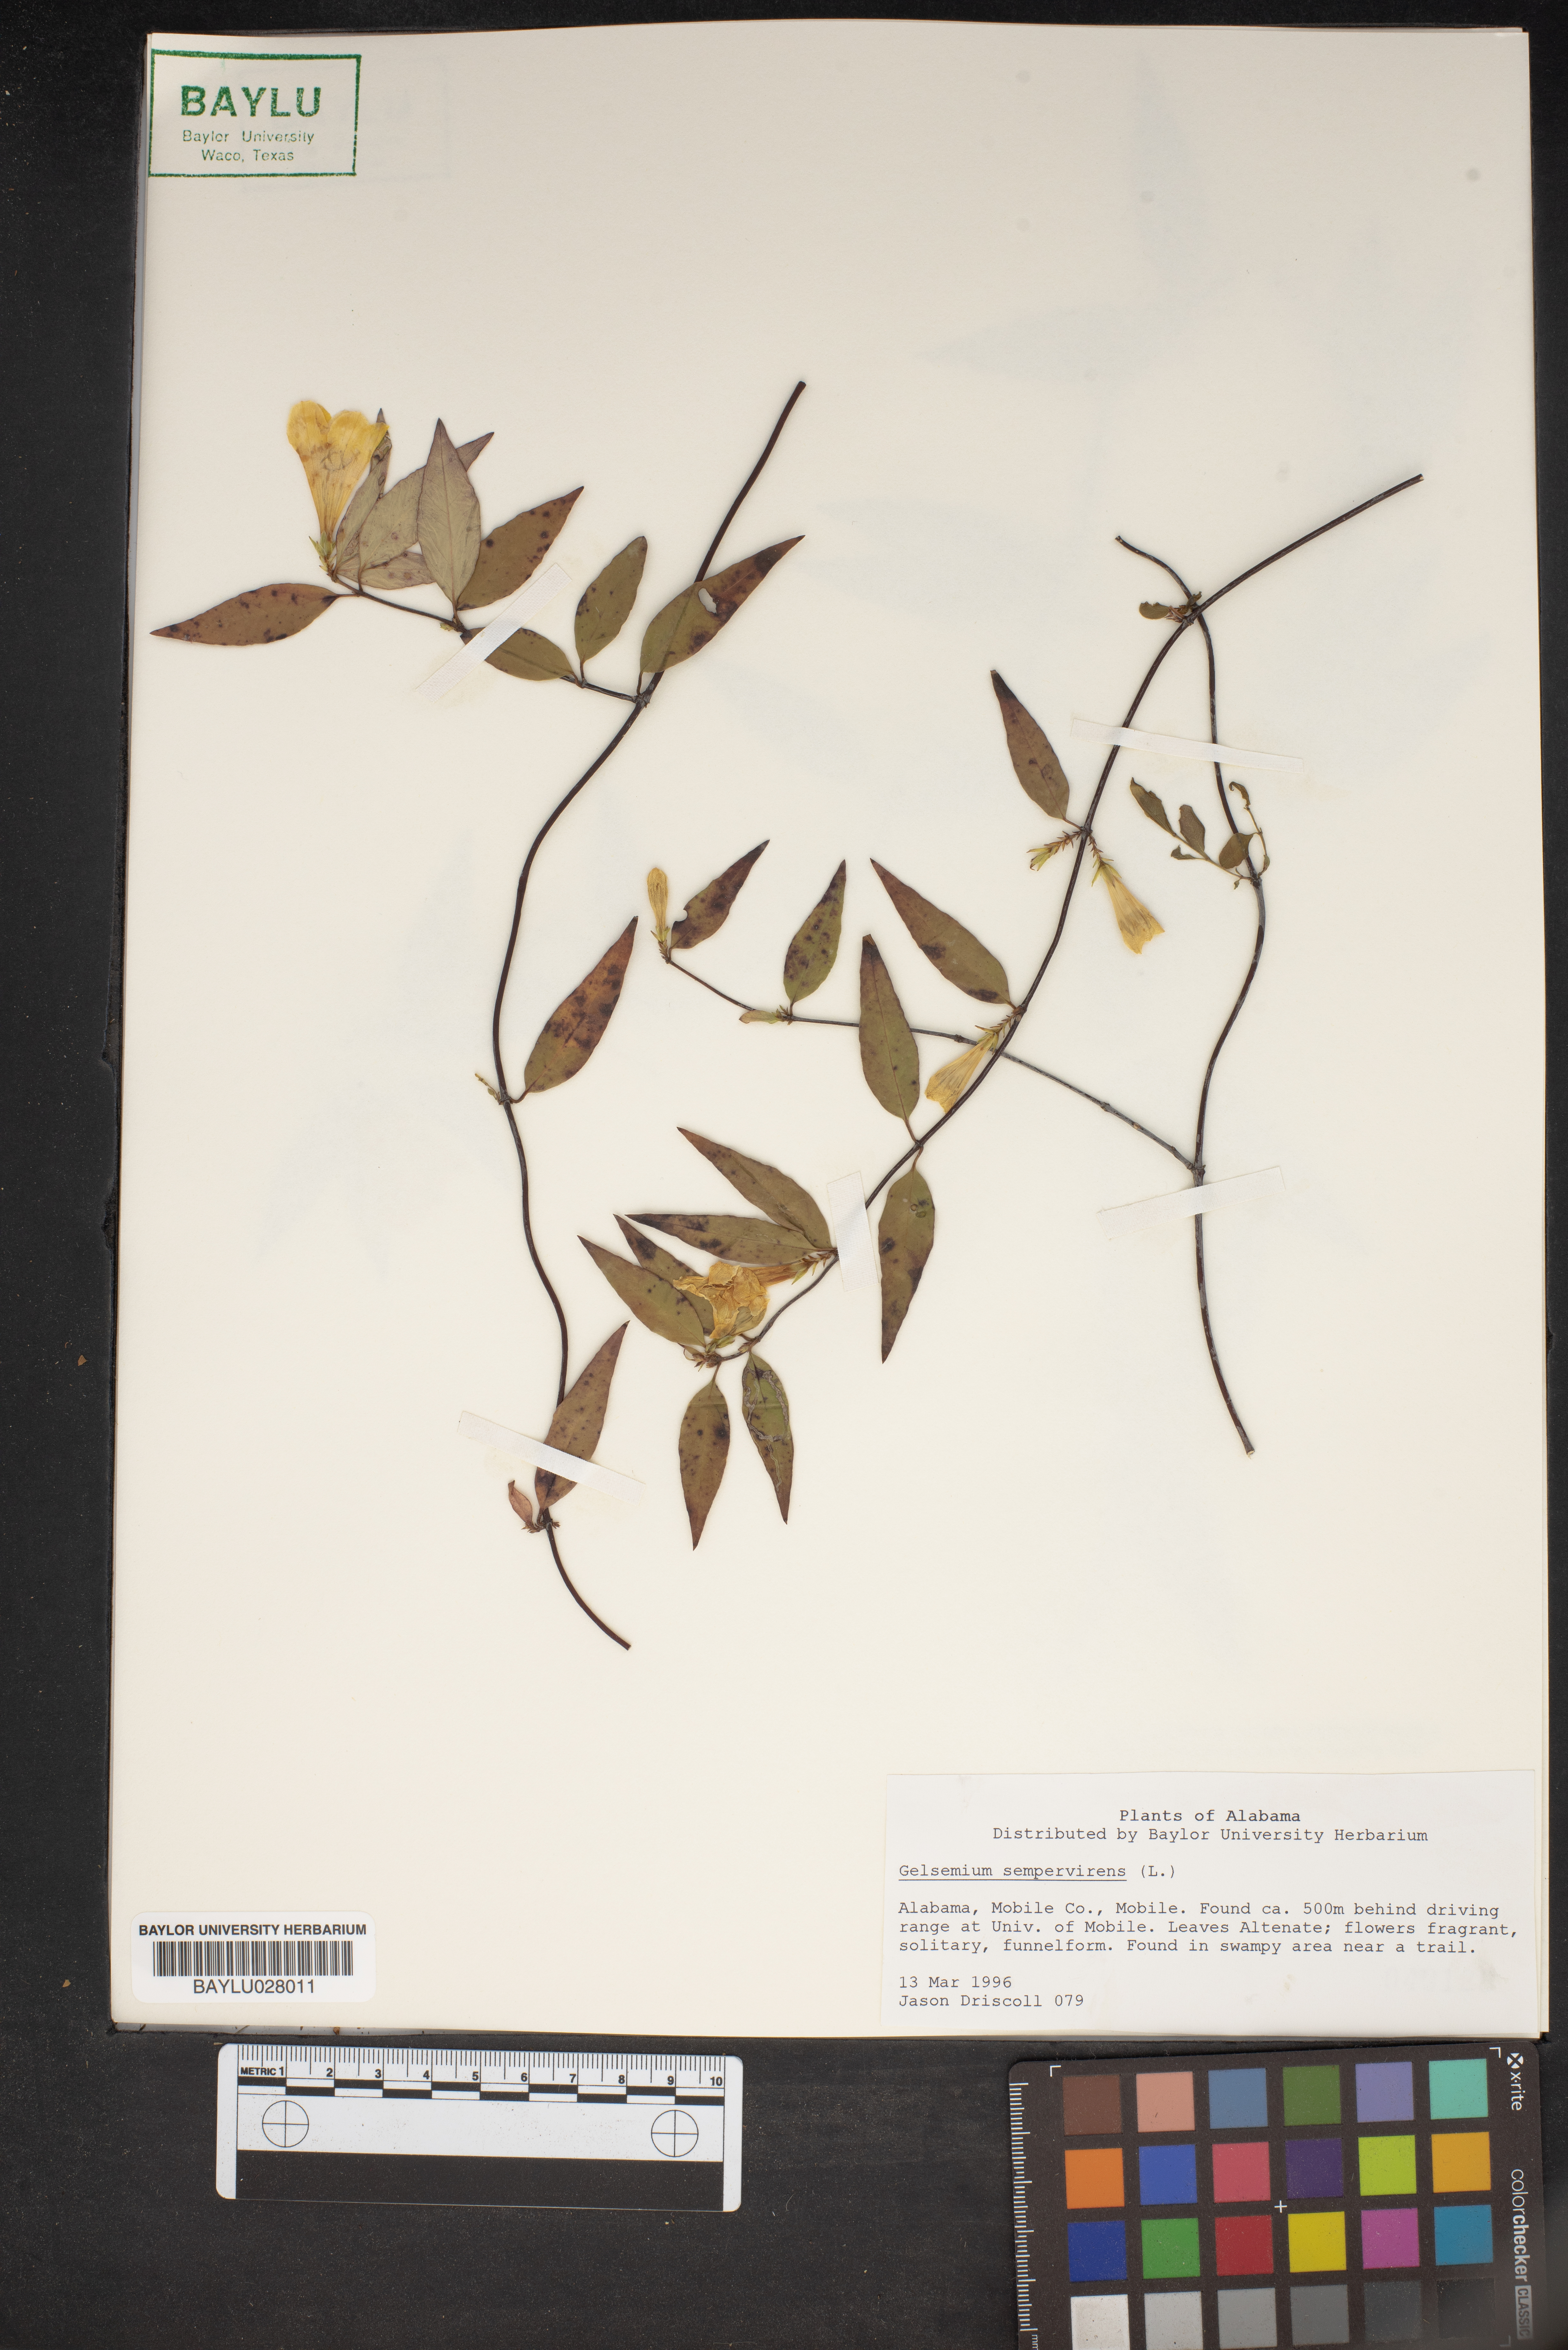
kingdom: Plantae
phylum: Tracheophyta
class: Magnoliopsida
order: Gentianales
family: Gelsemiaceae
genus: Gelsemium
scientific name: Gelsemium sempervirens
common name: Carolina-jasmine
